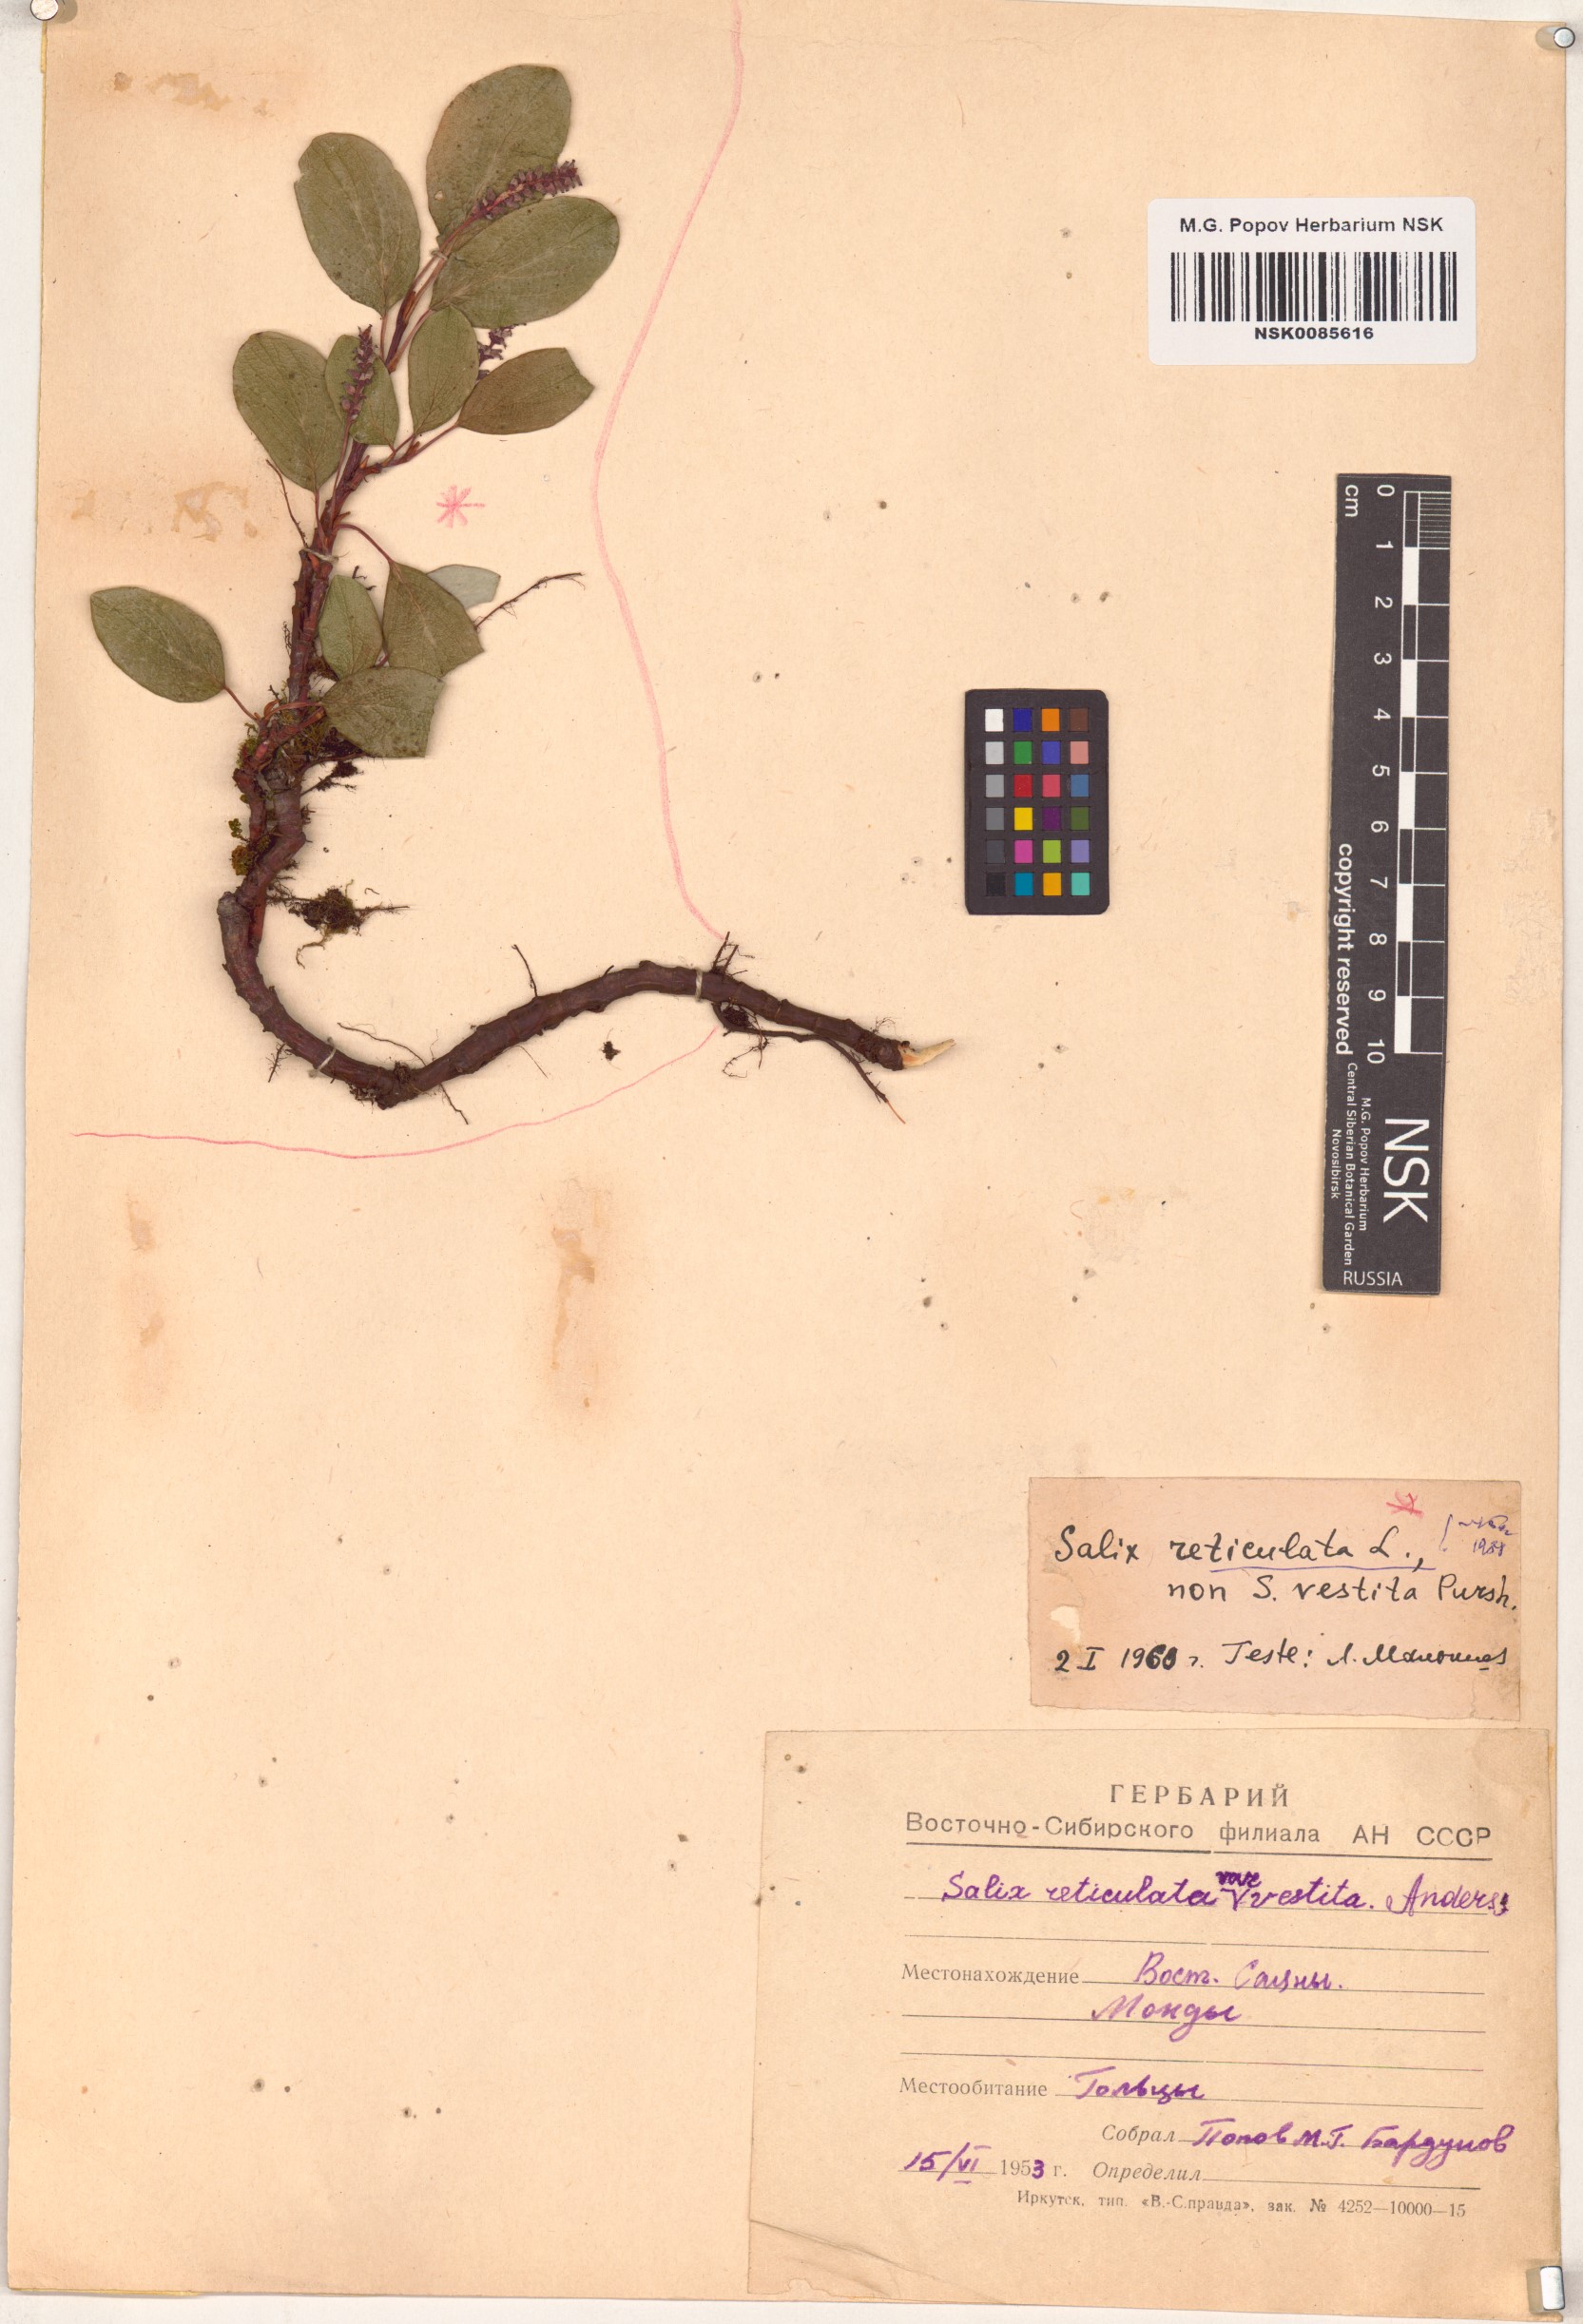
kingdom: Plantae
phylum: Tracheophyta
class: Magnoliopsida
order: Malpighiales
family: Salicaceae
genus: Salix
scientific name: Salix reticulata
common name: Net-leaved willow
